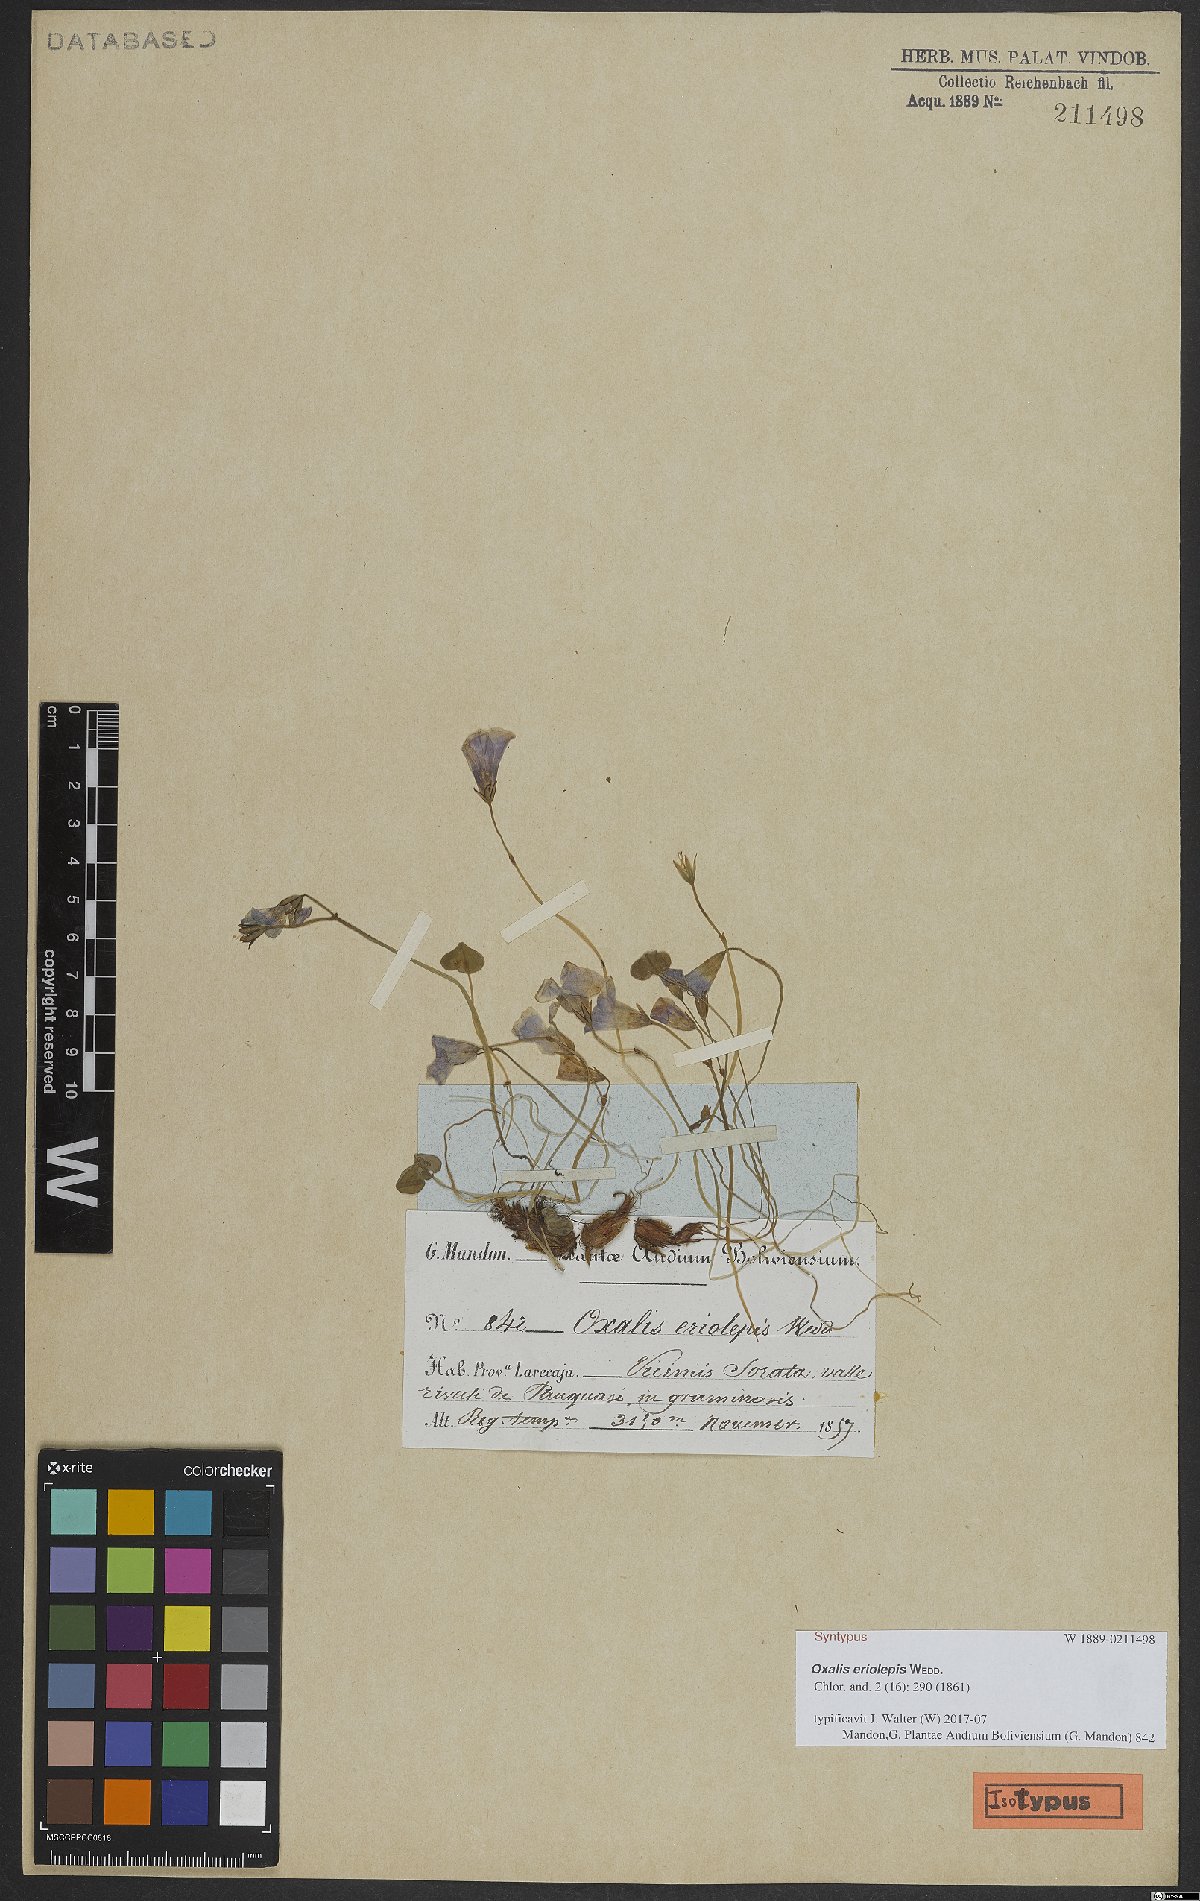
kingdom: Plantae
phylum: Tracheophyta
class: Magnoliopsida
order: Oxalidales
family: Oxalidaceae
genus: Oxalis
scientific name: Oxalis eriolepis
